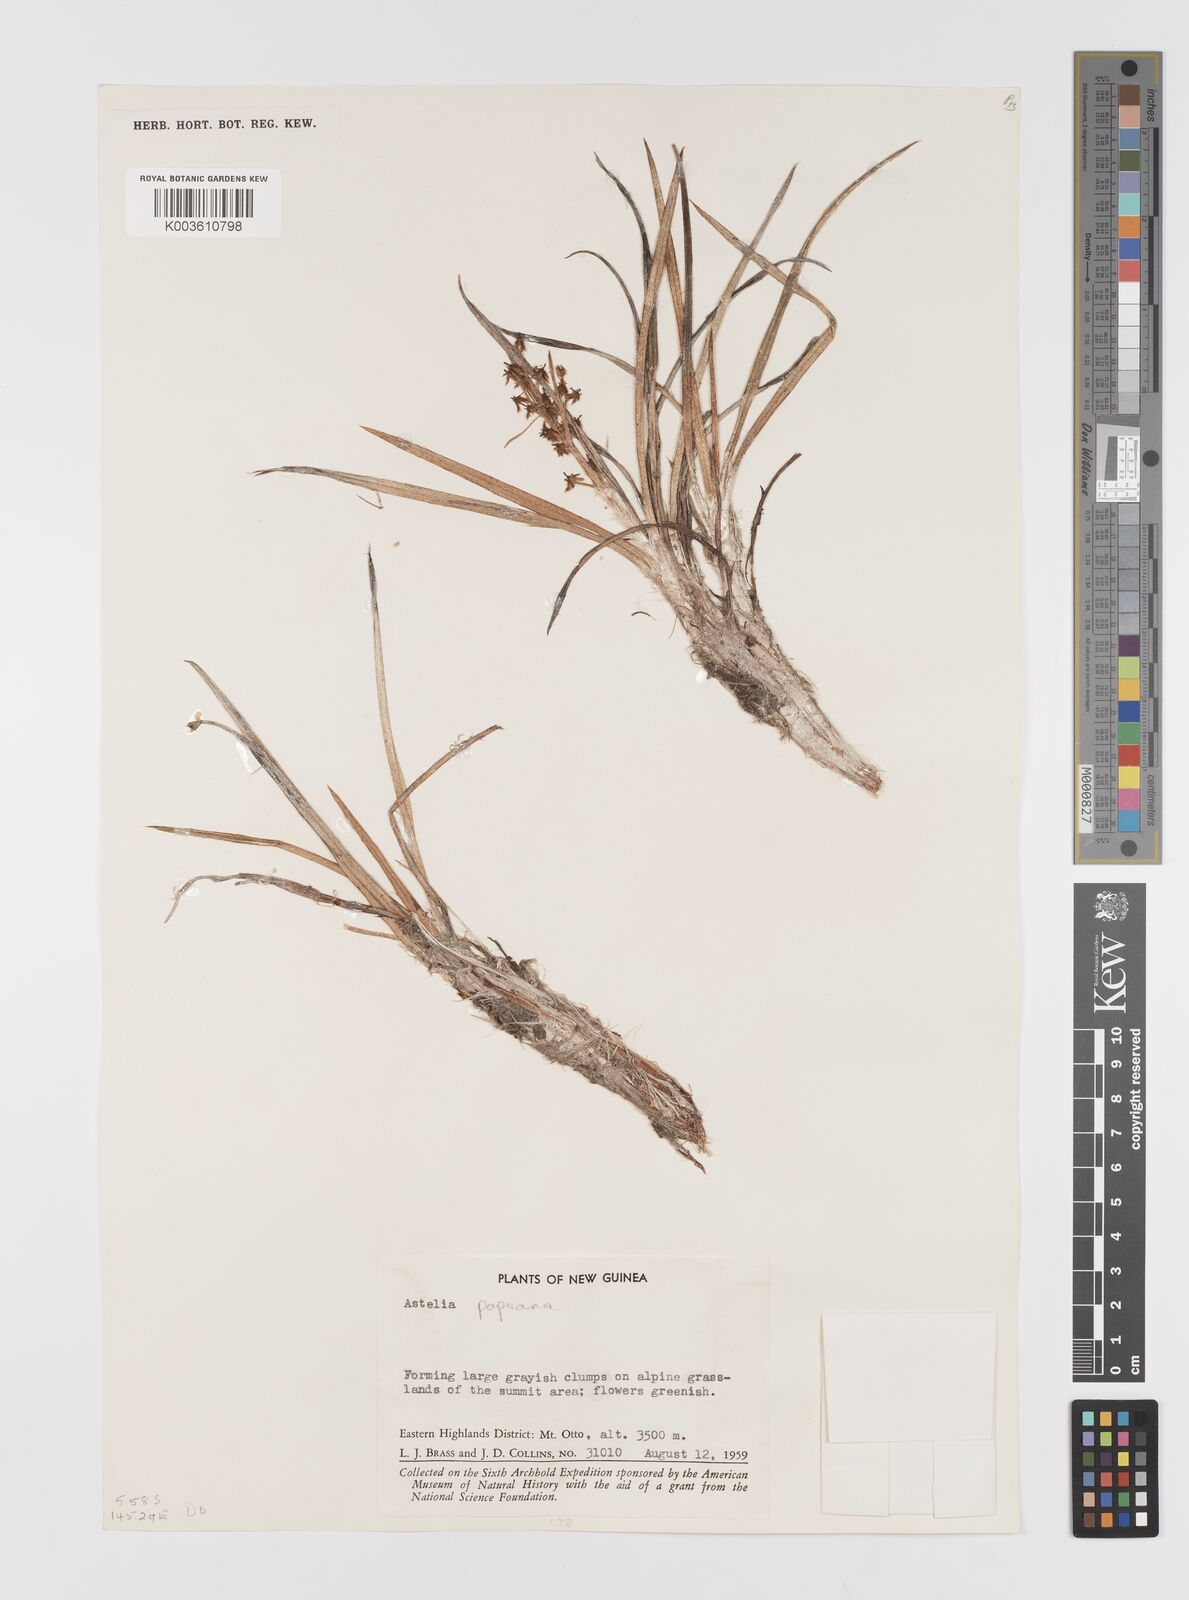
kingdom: Plantae
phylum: Tracheophyta
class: Liliopsida
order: Asparagales
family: Asteliaceae
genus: Astelia
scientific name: Astelia papuana
